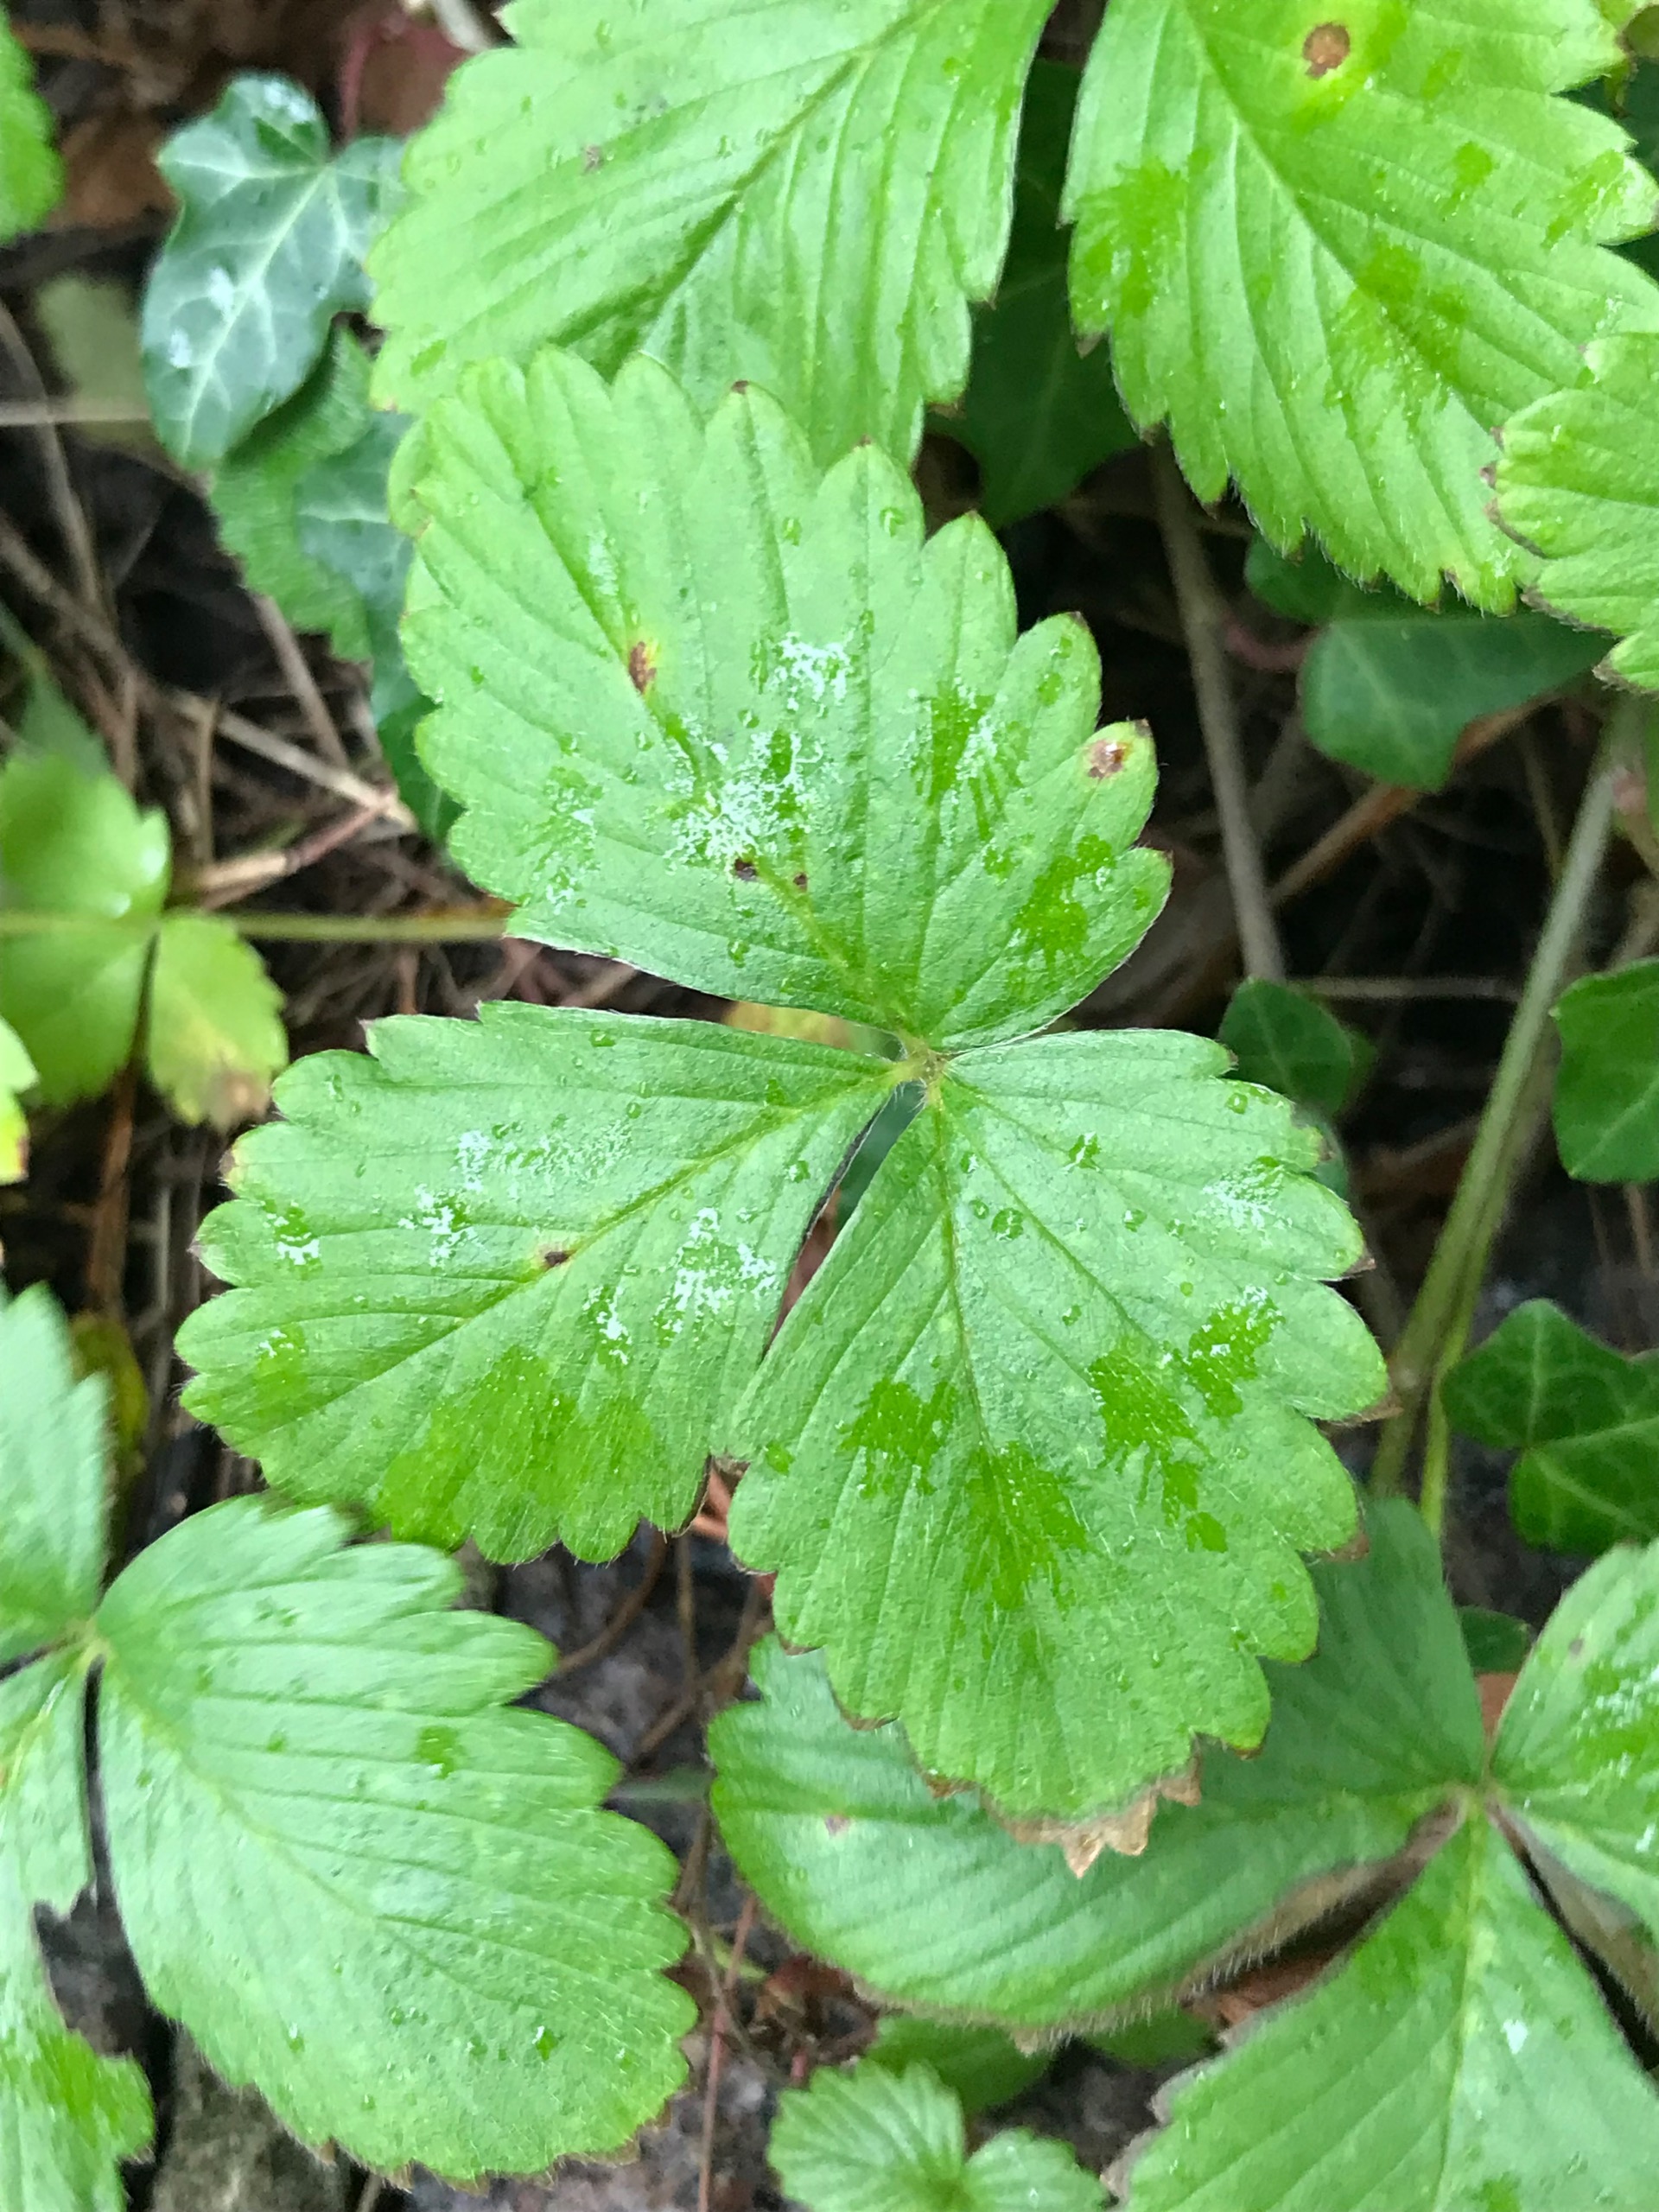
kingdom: Plantae
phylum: Tracheophyta
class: Magnoliopsida
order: Rosales
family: Rosaceae
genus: Fragaria
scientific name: Fragaria vesca
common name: Skov-jordbær
